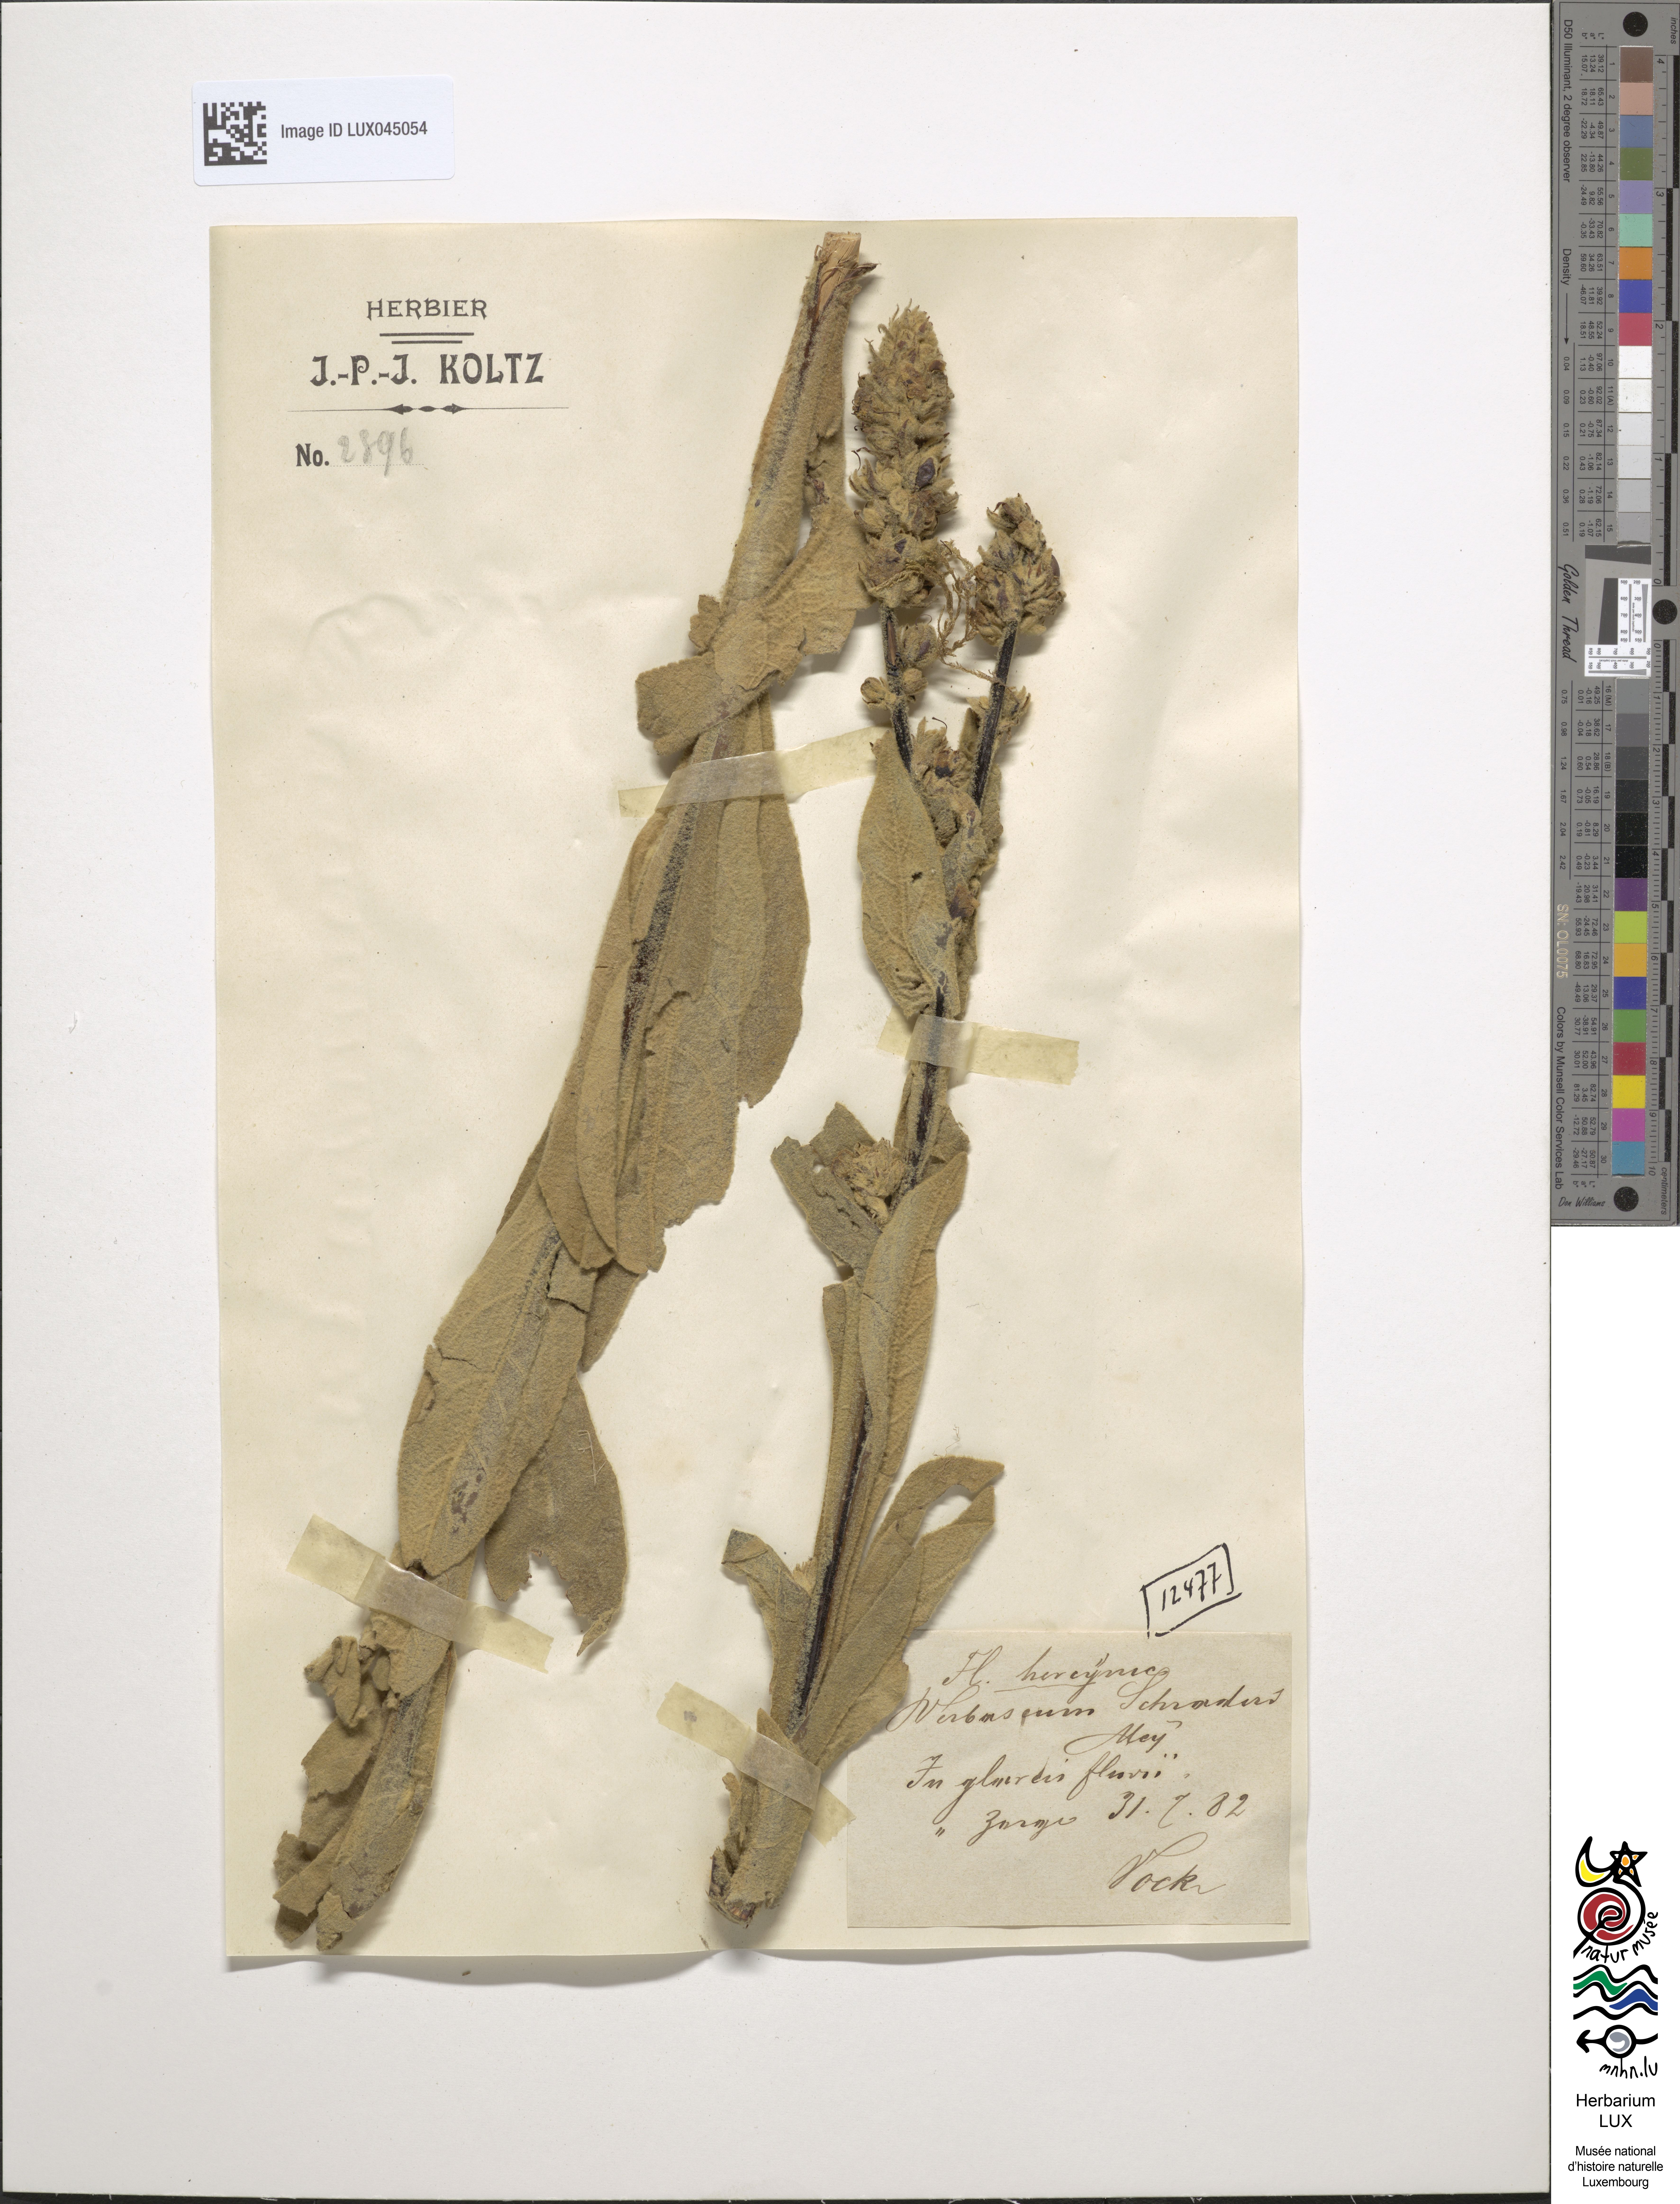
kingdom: Plantae
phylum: Tracheophyta
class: Magnoliopsida
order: Lamiales
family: Scrophulariaceae
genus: Verbascum
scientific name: Verbascum thapsus
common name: Common mullein
